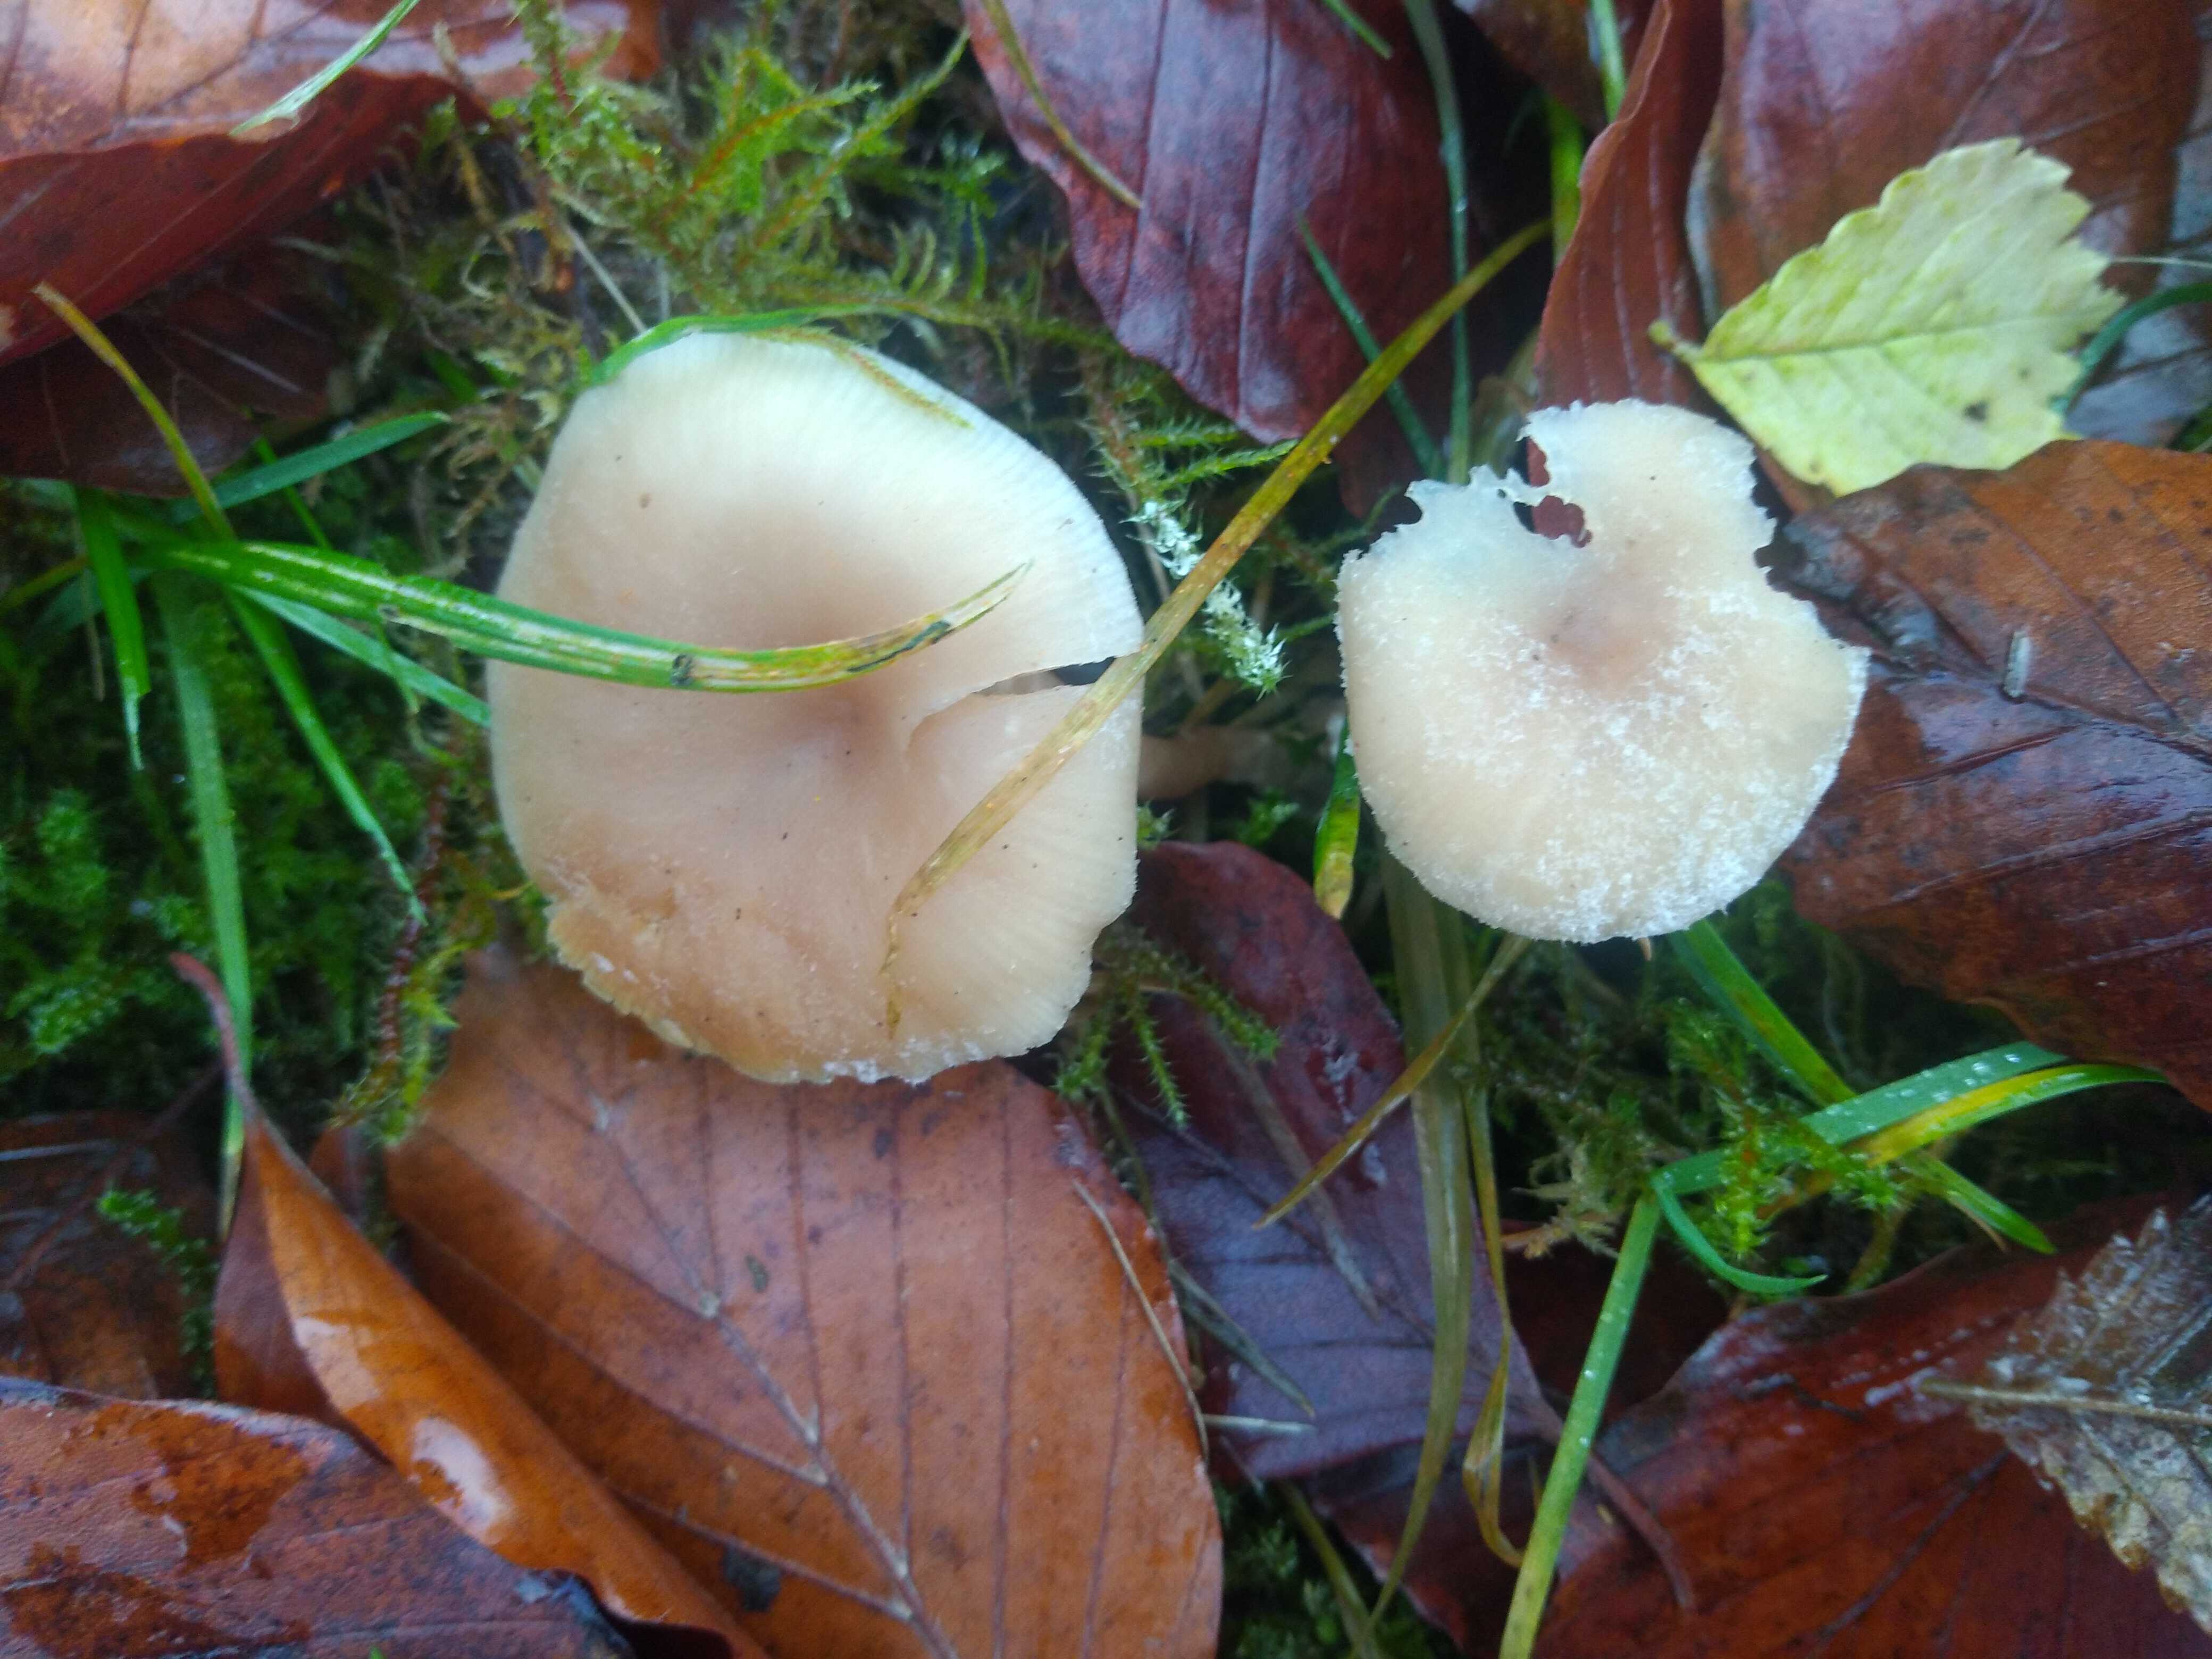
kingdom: Fungi
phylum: Basidiomycota
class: Agaricomycetes
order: Agaricales
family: Tricholomataceae
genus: Clitocybe
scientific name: Clitocybe fragrans
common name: vellugtende tragthat
